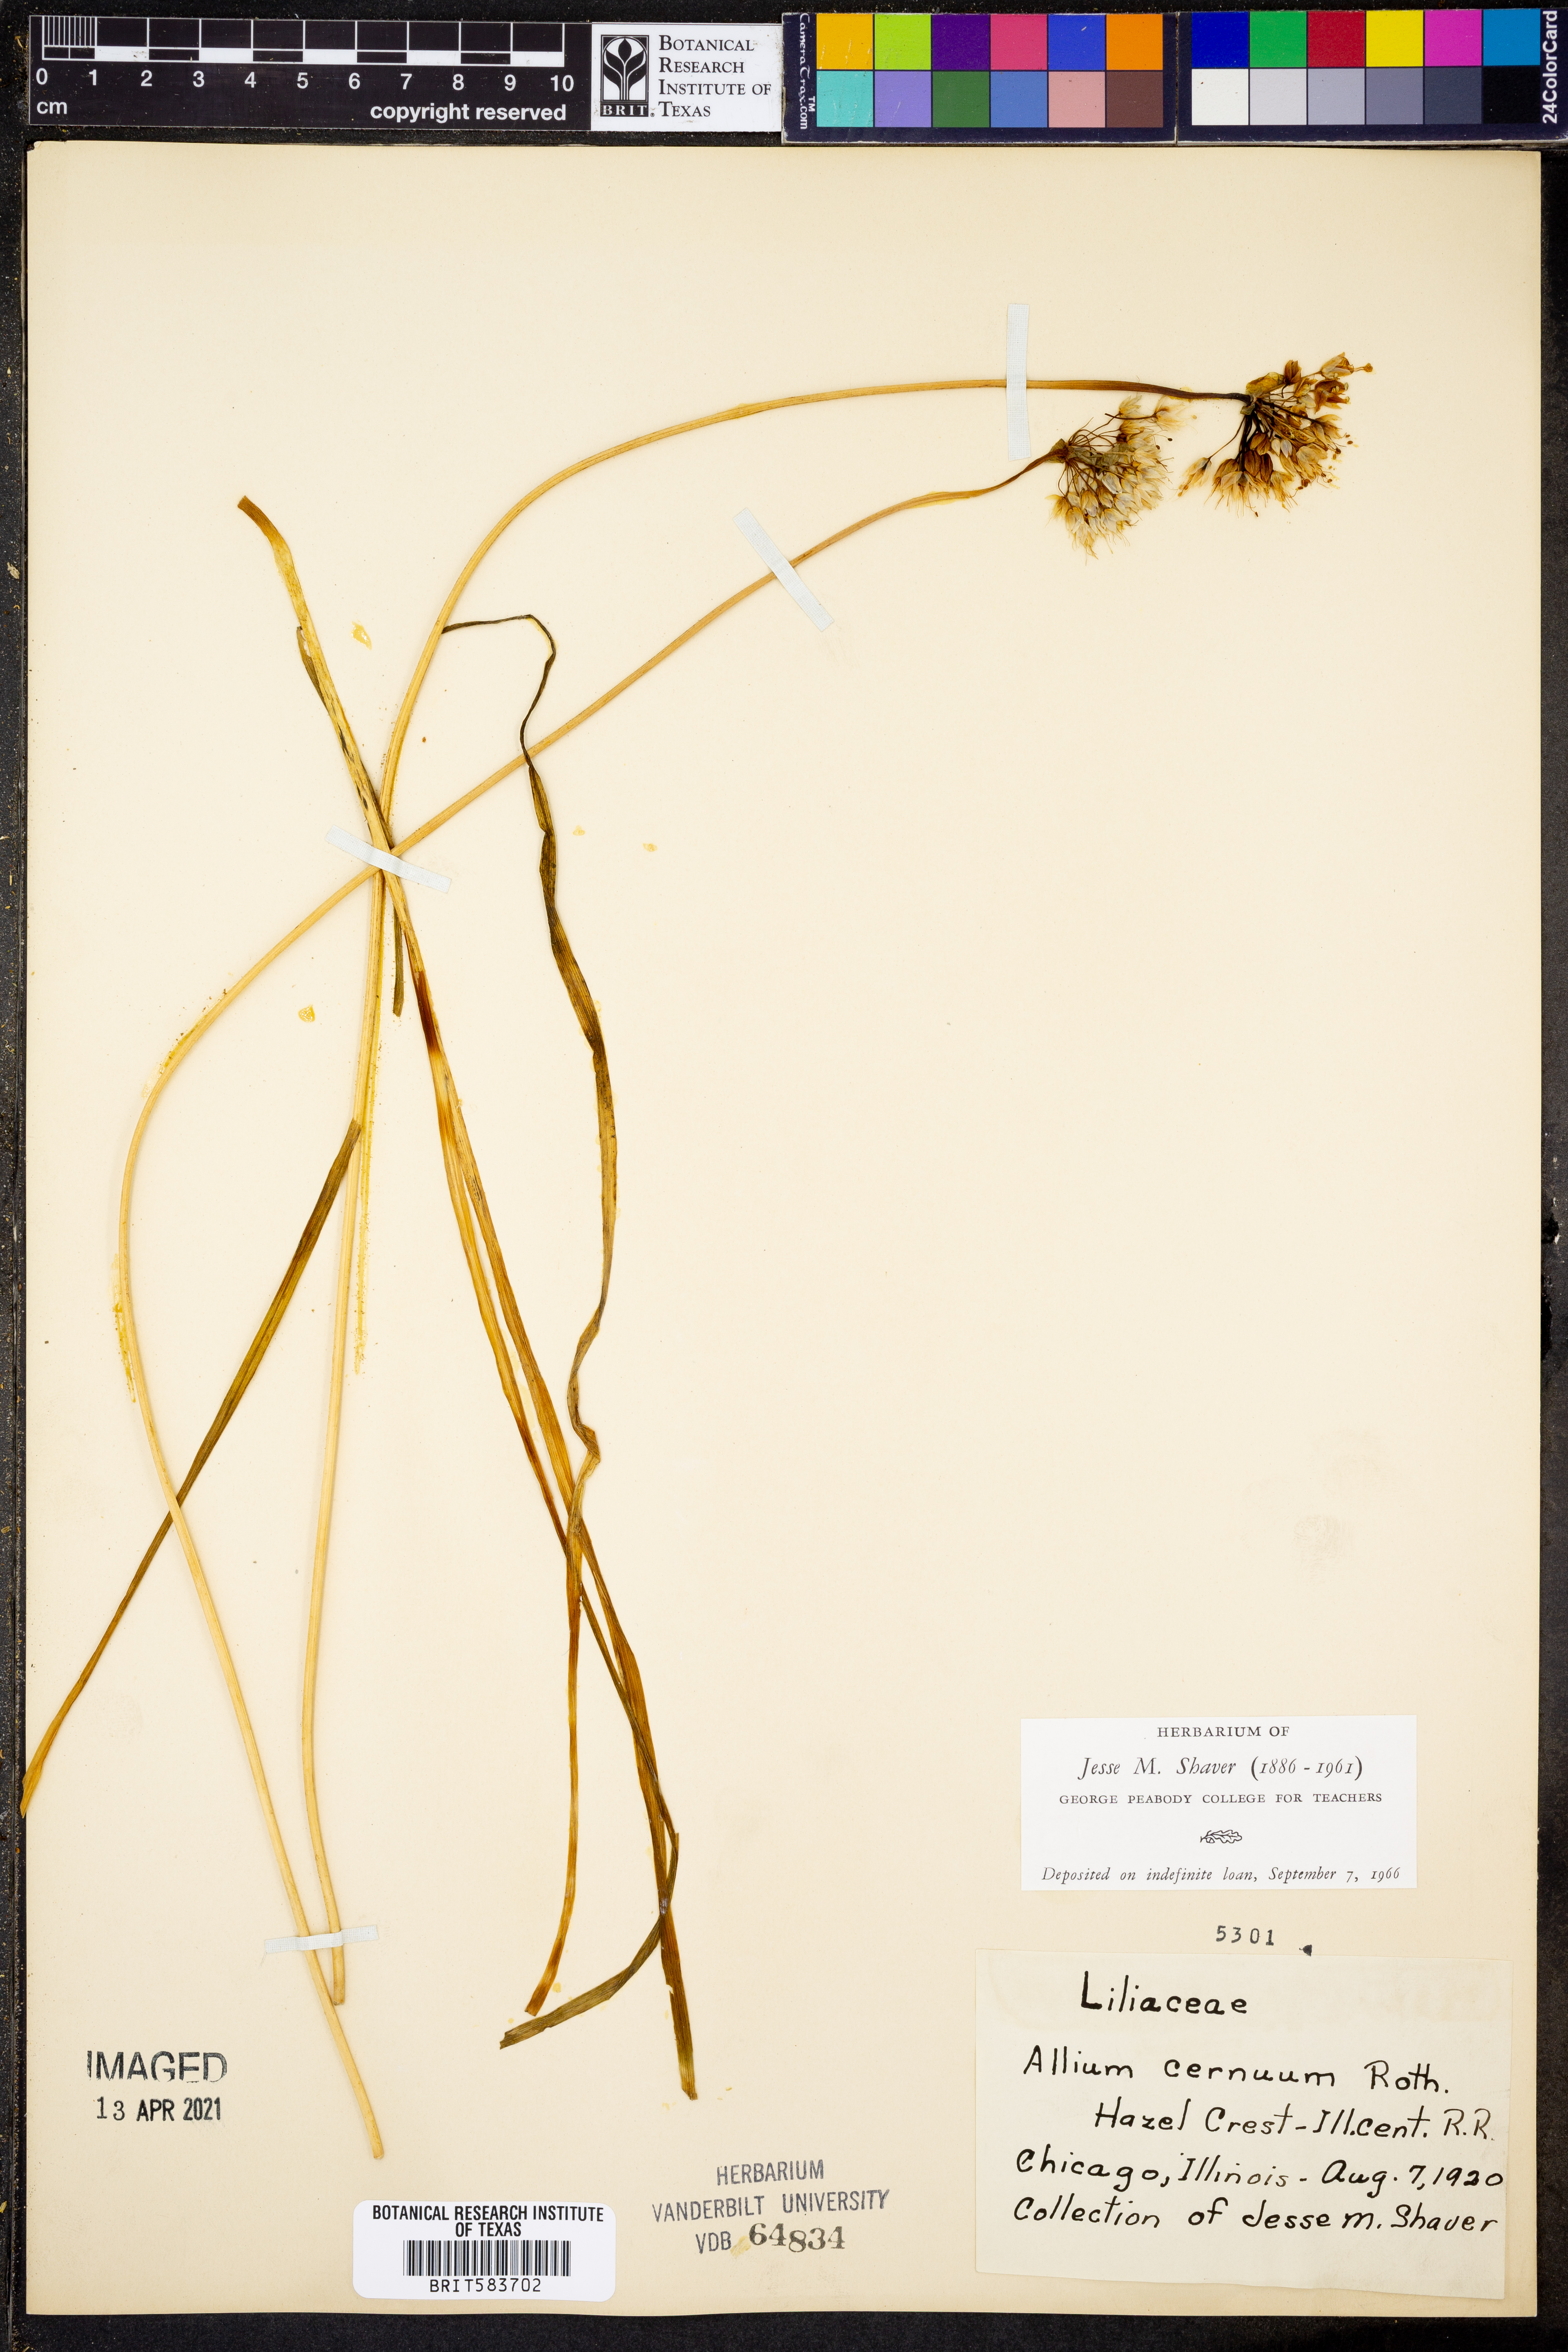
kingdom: Plantae
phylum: Tracheophyta
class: Liliopsida
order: Asparagales
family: Amaryllidaceae
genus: Allium
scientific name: Allium cernuum
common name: Nodding onion
